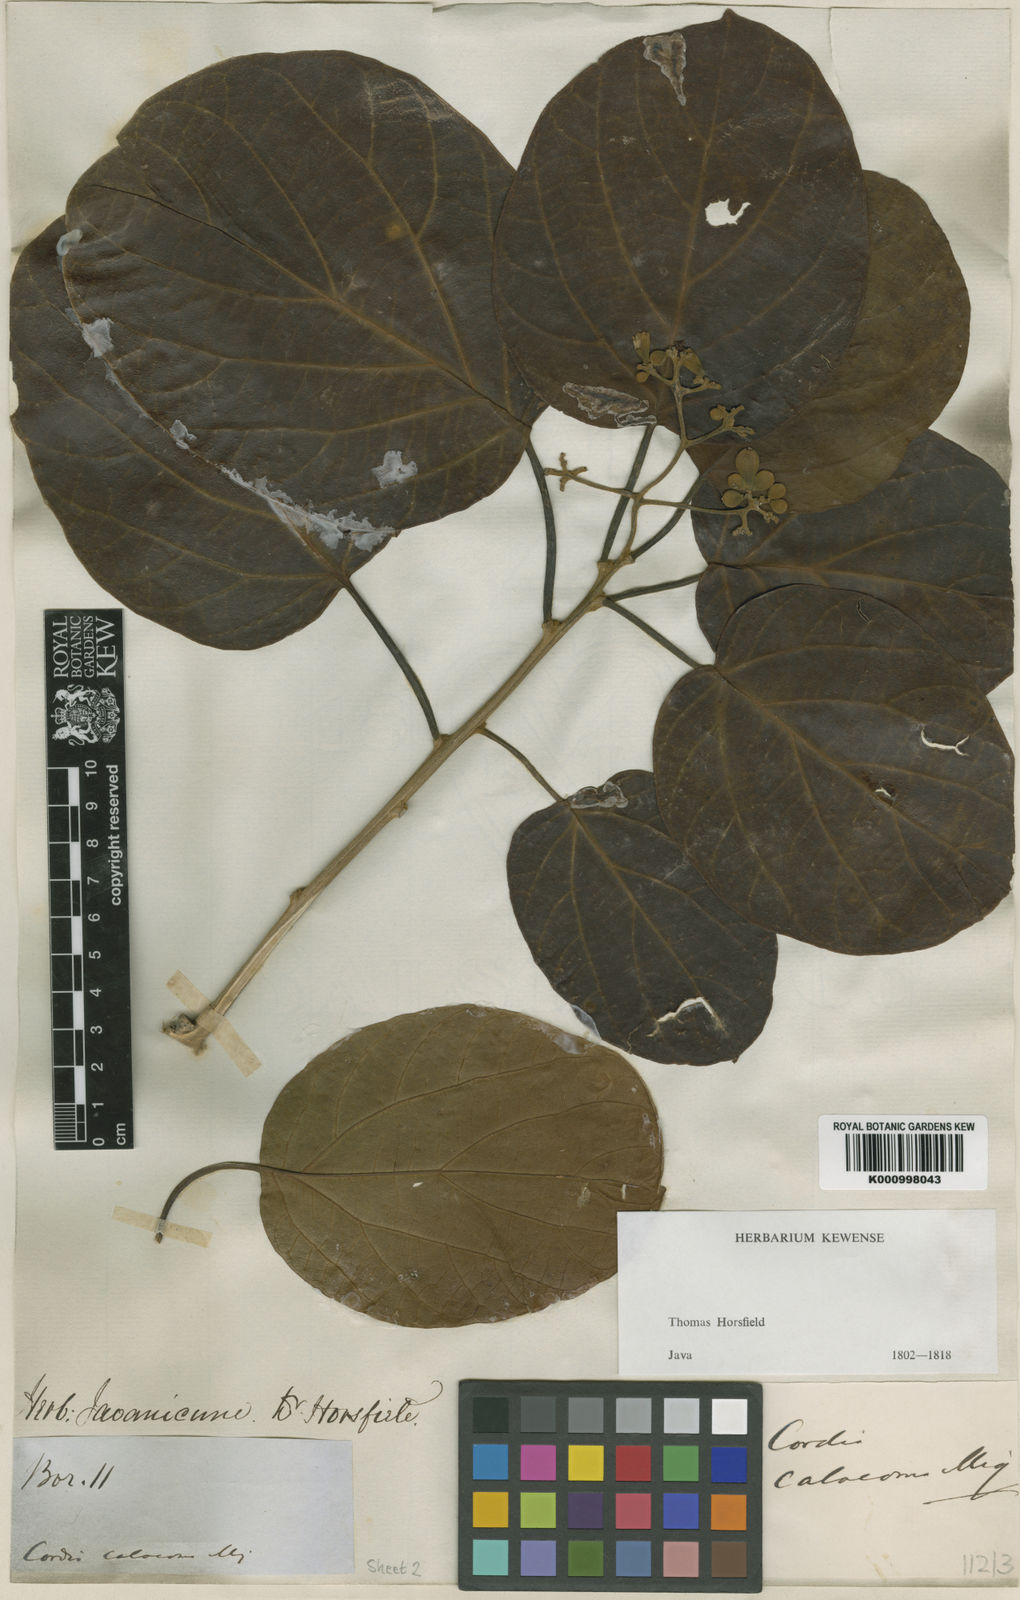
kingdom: Plantae
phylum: Tracheophyta
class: Magnoliopsida
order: Boraginales
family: Cordiaceae
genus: Cordia
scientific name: Cordia bantamensis
